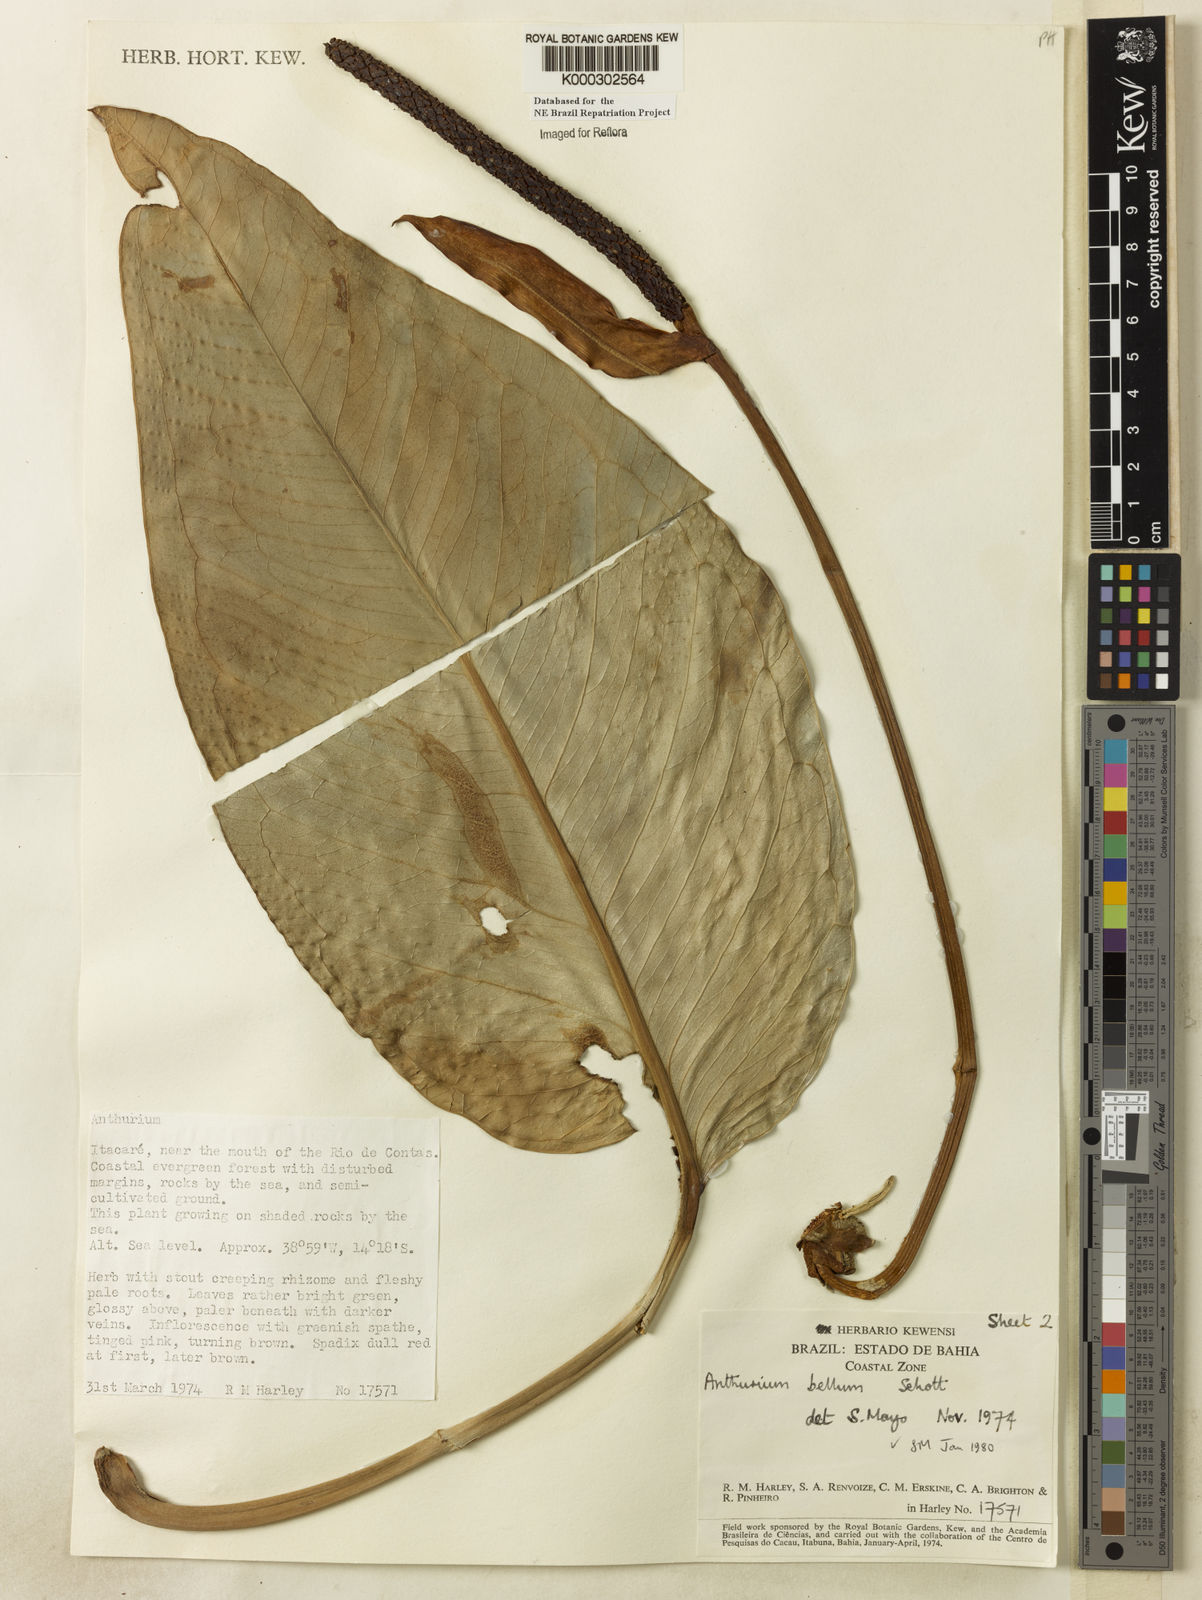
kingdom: Plantae
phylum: Tracheophyta
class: Liliopsida
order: Alismatales
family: Araceae
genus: Anthurium
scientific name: Anthurium bellum
